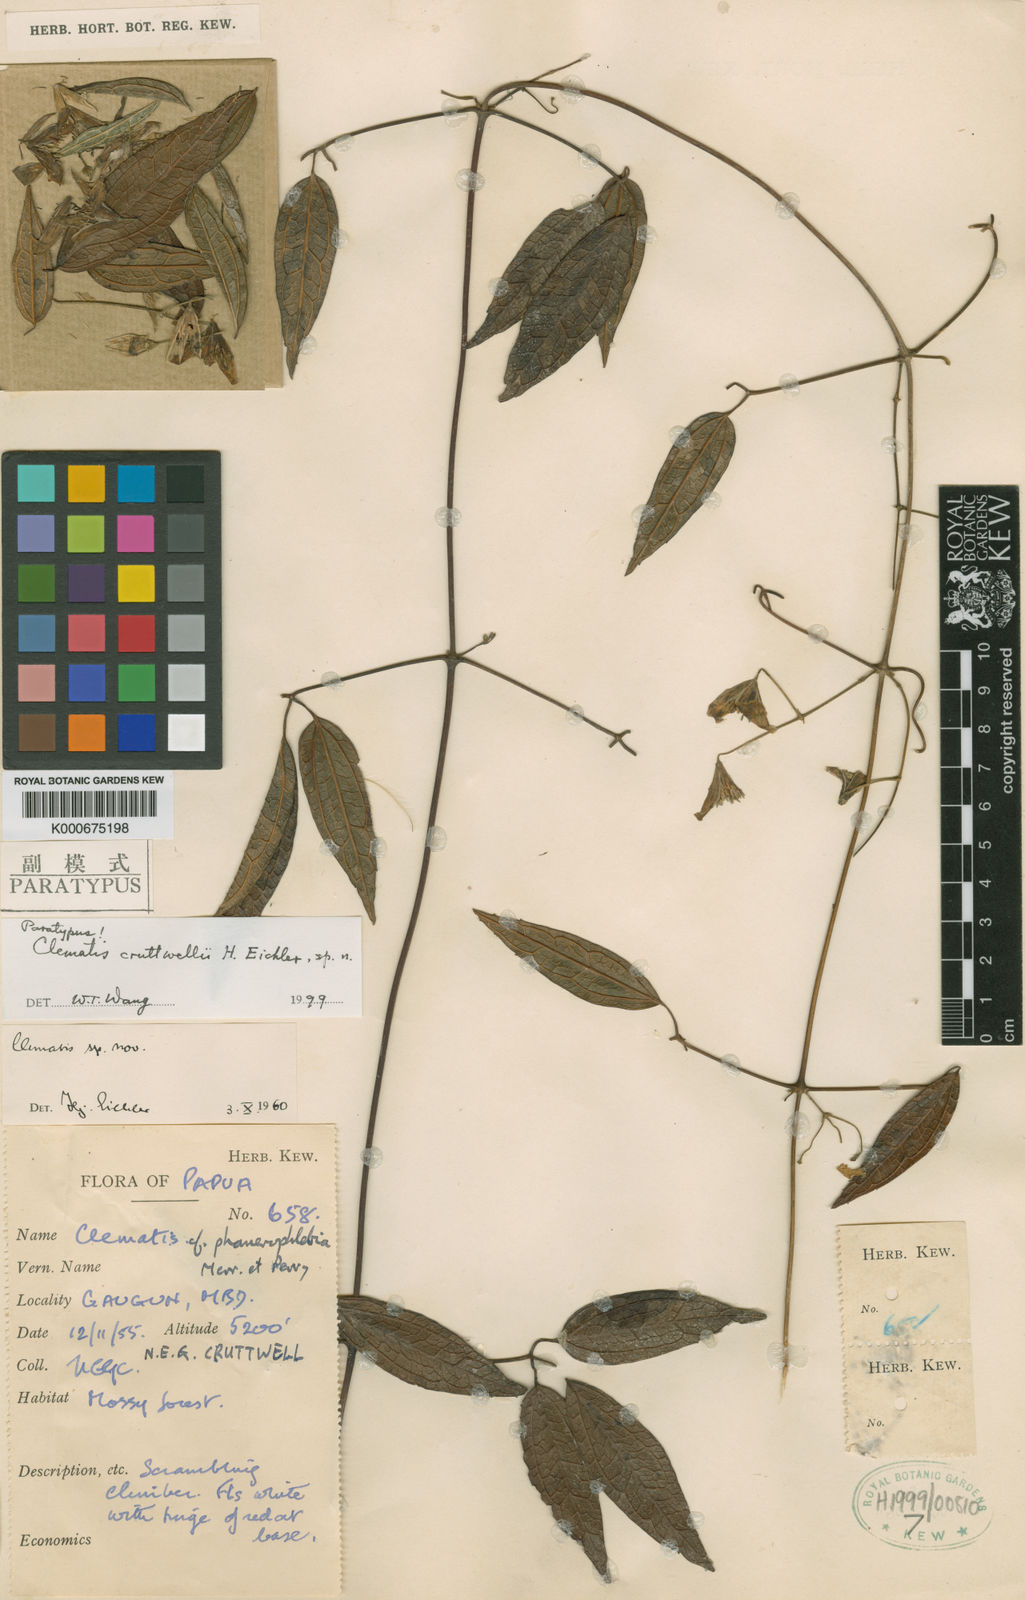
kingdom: Plantae
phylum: Tracheophyta
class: Magnoliopsida
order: Ranunculales
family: Ranunculaceae
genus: Clematis
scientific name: Clematis cruttwellii
